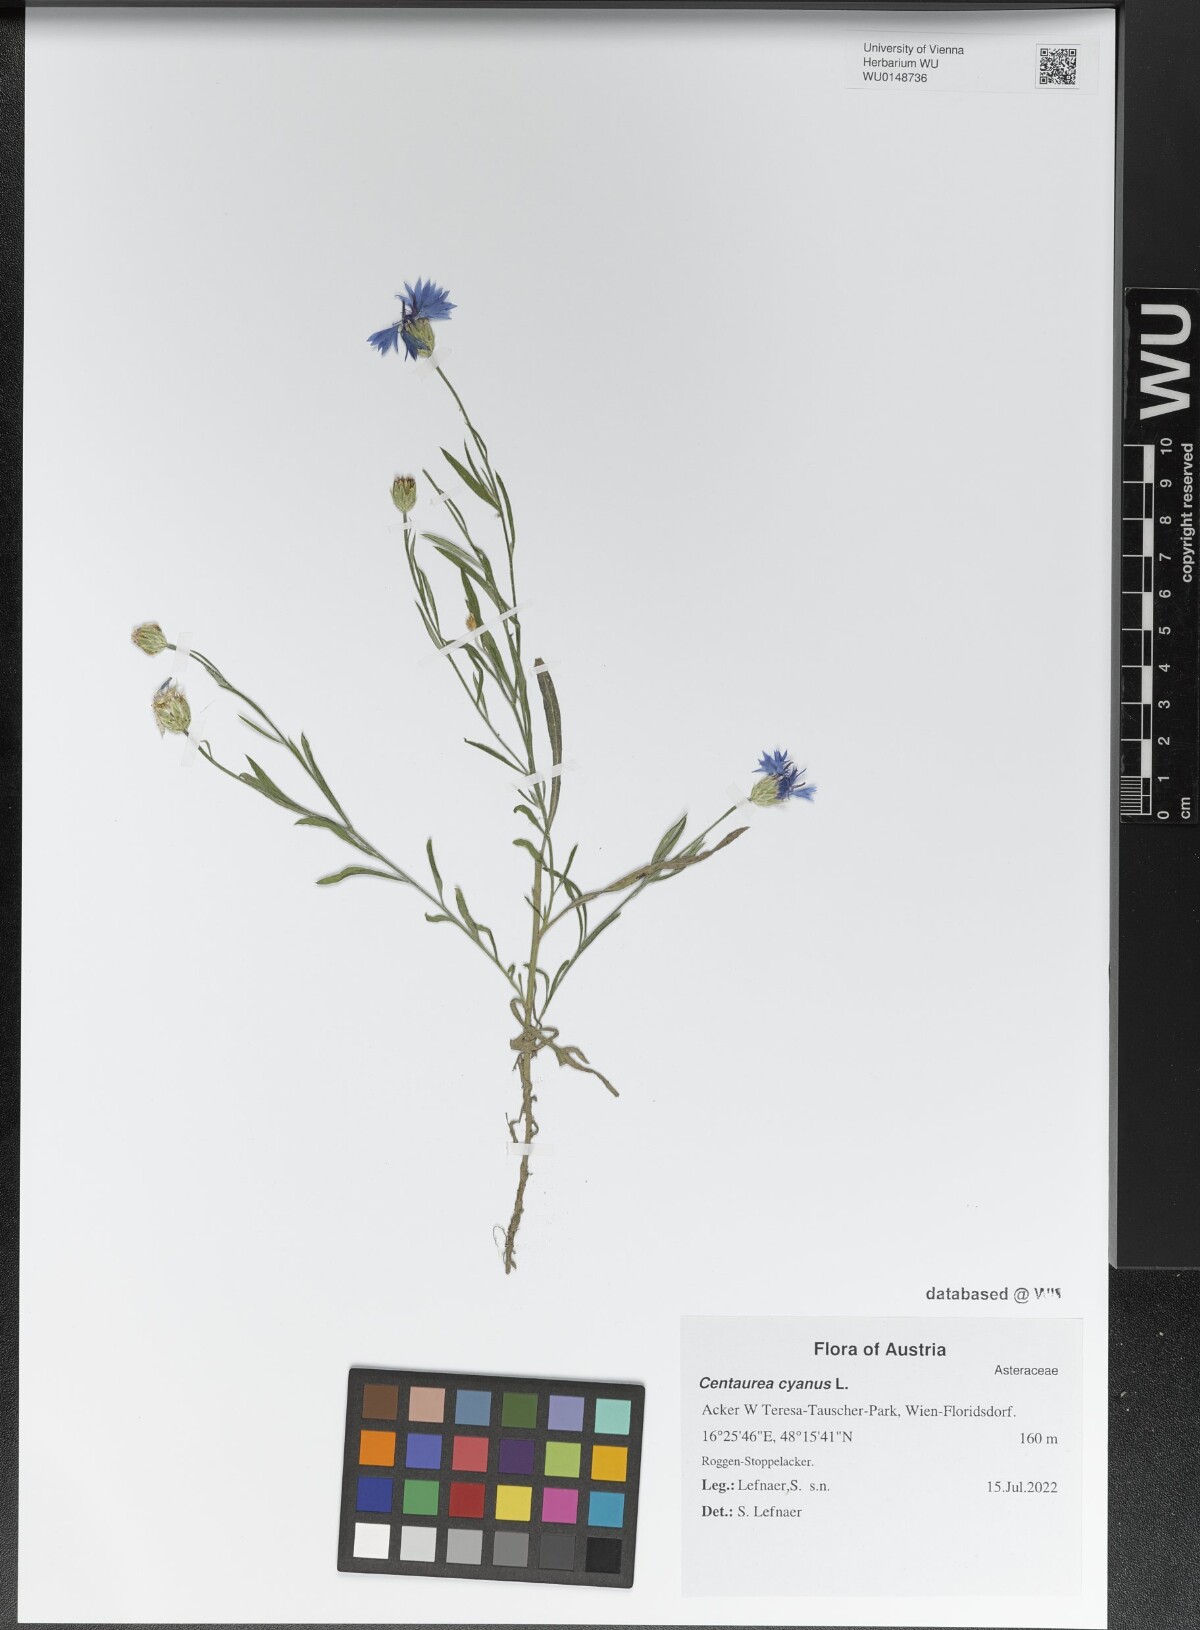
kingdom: Plantae
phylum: Tracheophyta
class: Magnoliopsida
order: Asterales
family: Asteraceae
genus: Centaurea
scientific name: Centaurea cyanus
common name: Cornflower
